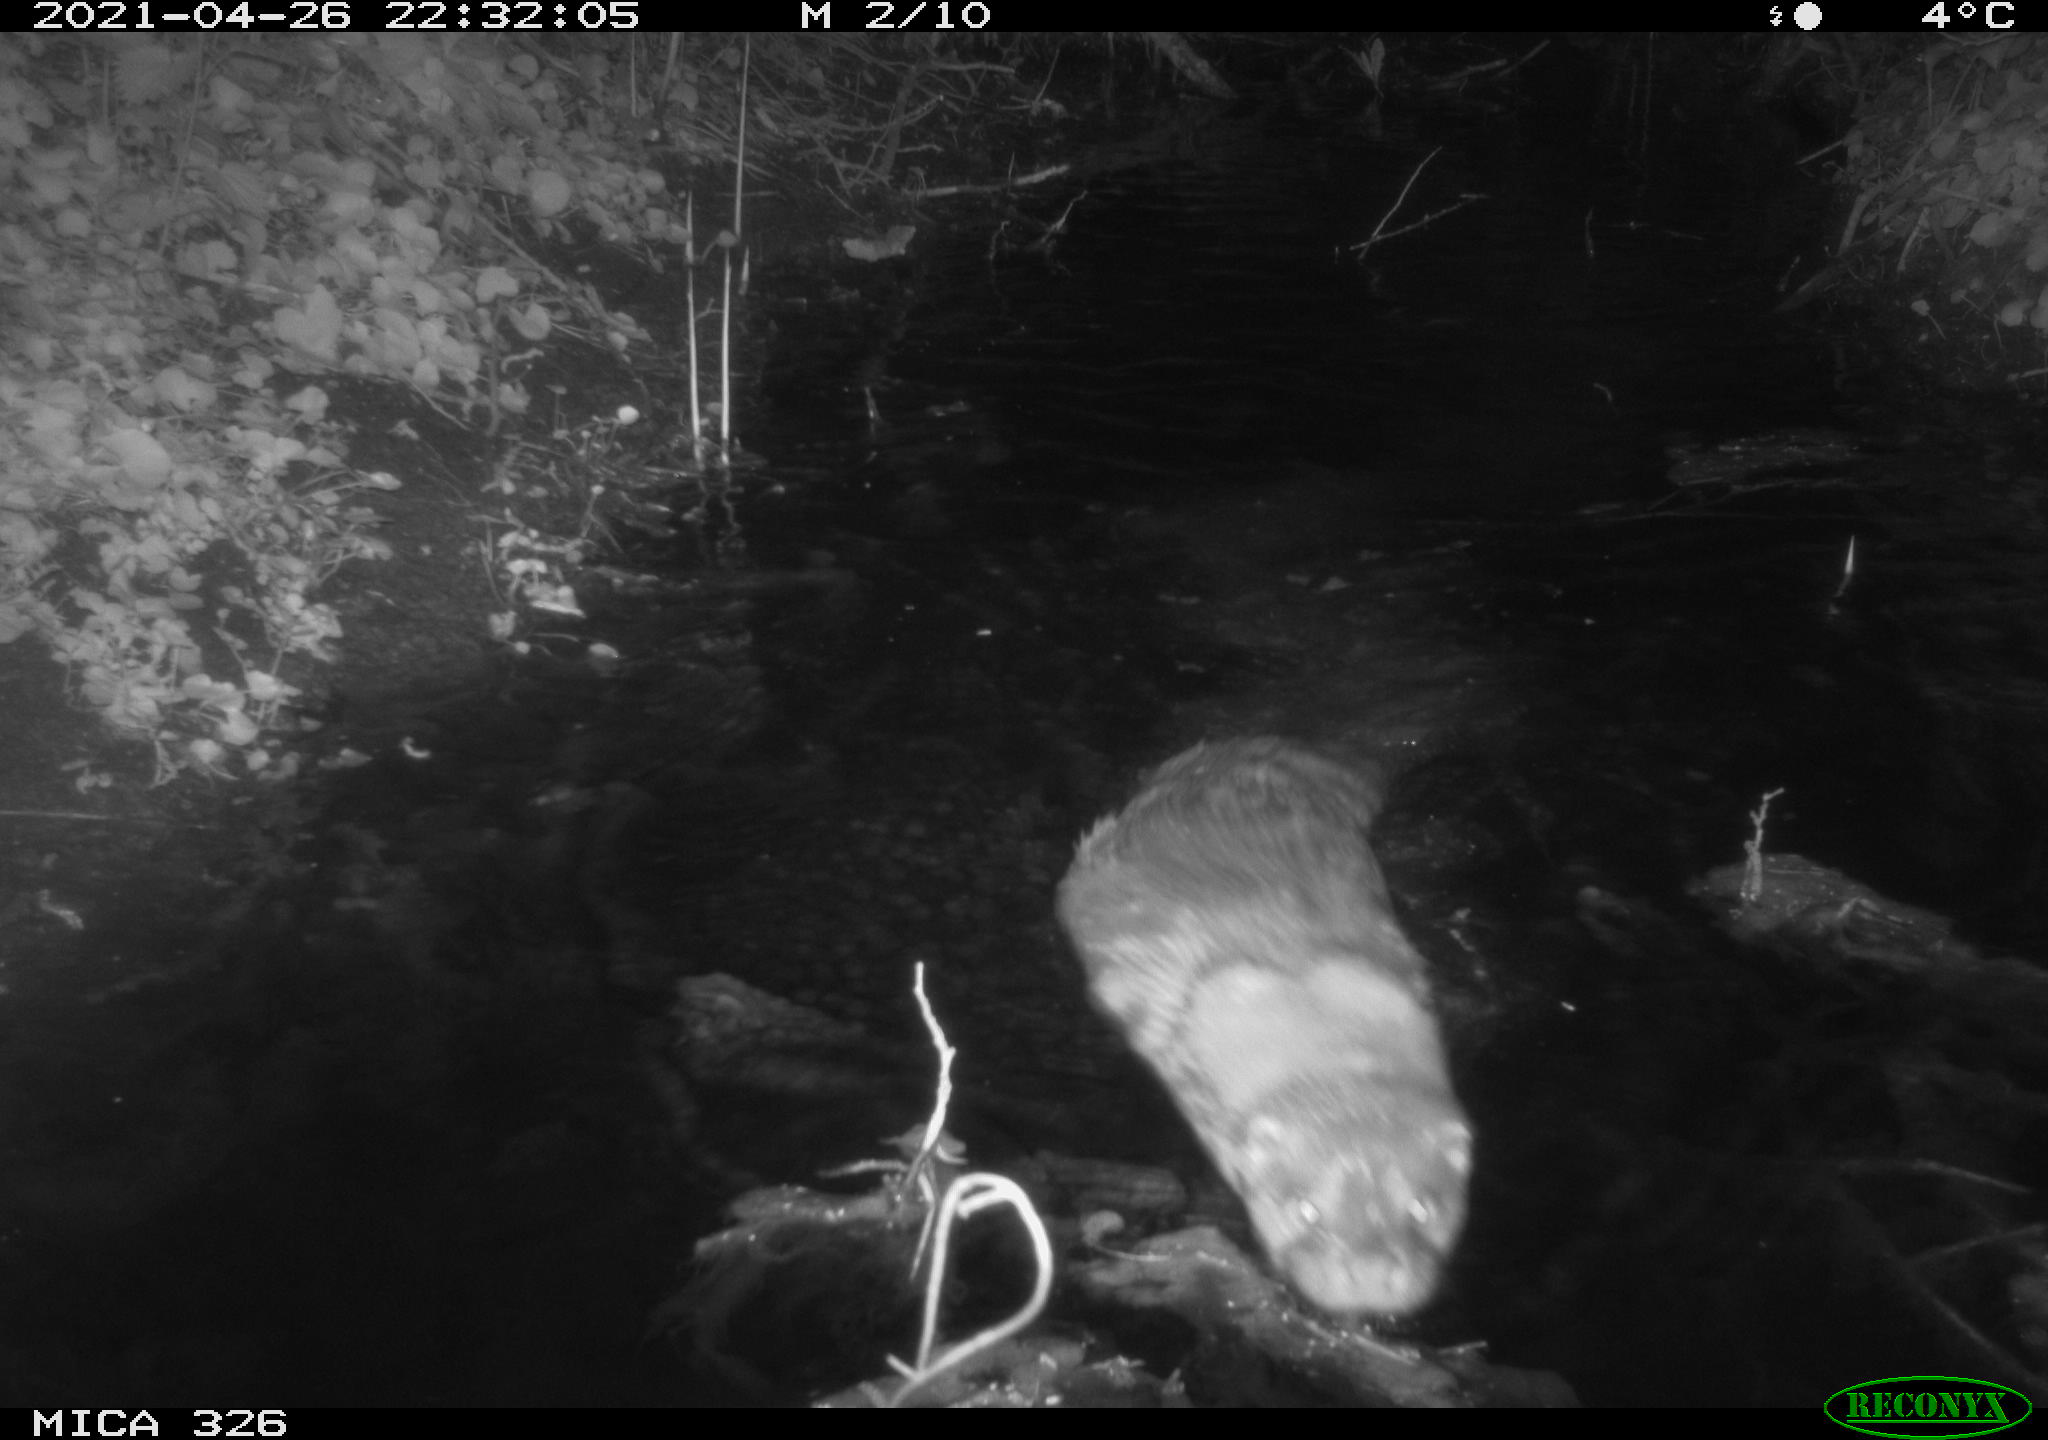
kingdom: Animalia
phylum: Chordata
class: Mammalia
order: Carnivora
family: Mustelidae
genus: Lutra
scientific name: Lutra lutra
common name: European otter
